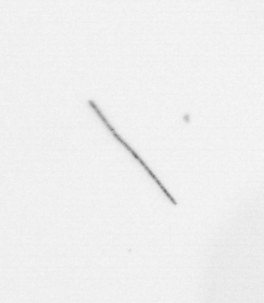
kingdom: Chromista
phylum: Ochrophyta
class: Bacillariophyceae
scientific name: Bacillariophyceae
